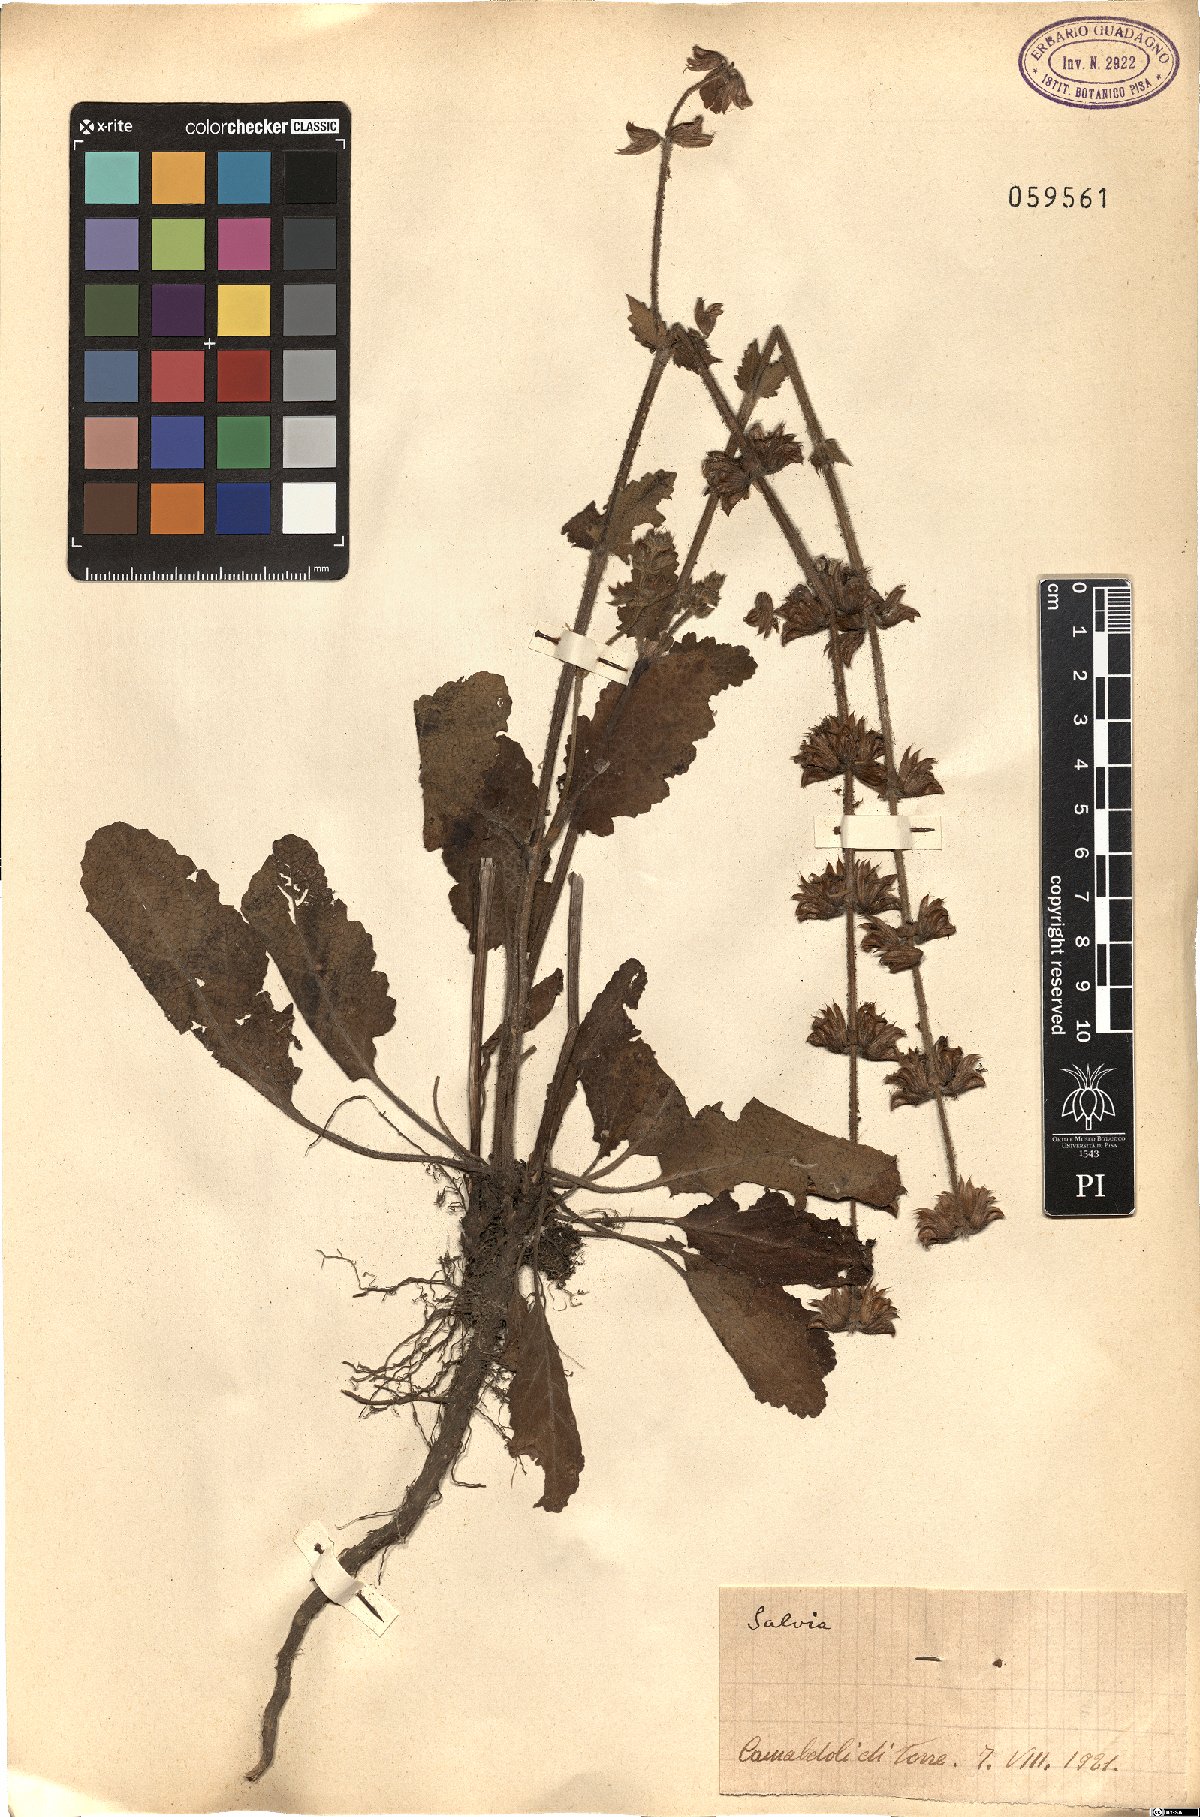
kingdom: Plantae
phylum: Tracheophyta
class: Magnoliopsida
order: Lamiales
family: Lamiaceae
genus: Salvia
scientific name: Salvia
